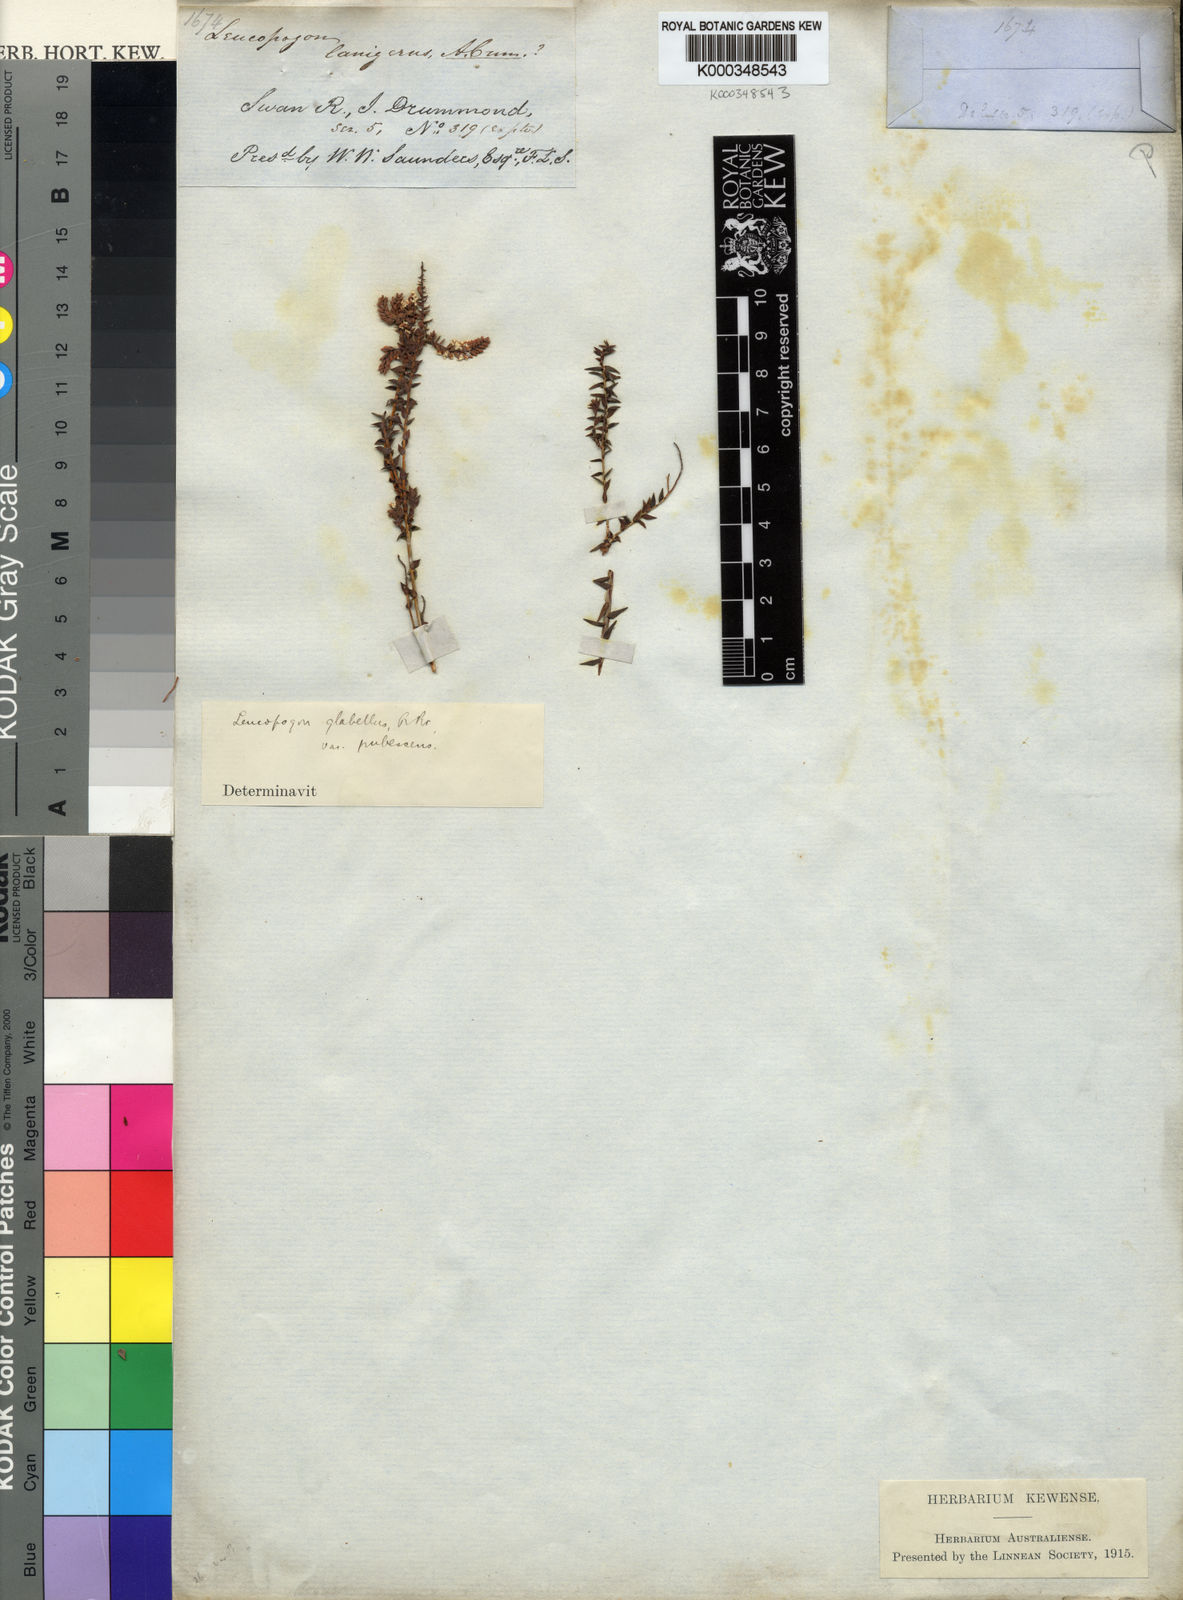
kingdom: Plantae
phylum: Tracheophyta
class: Magnoliopsida
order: Ericales
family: Ericaceae
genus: Leucopogon
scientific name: Leucopogon glabellus
